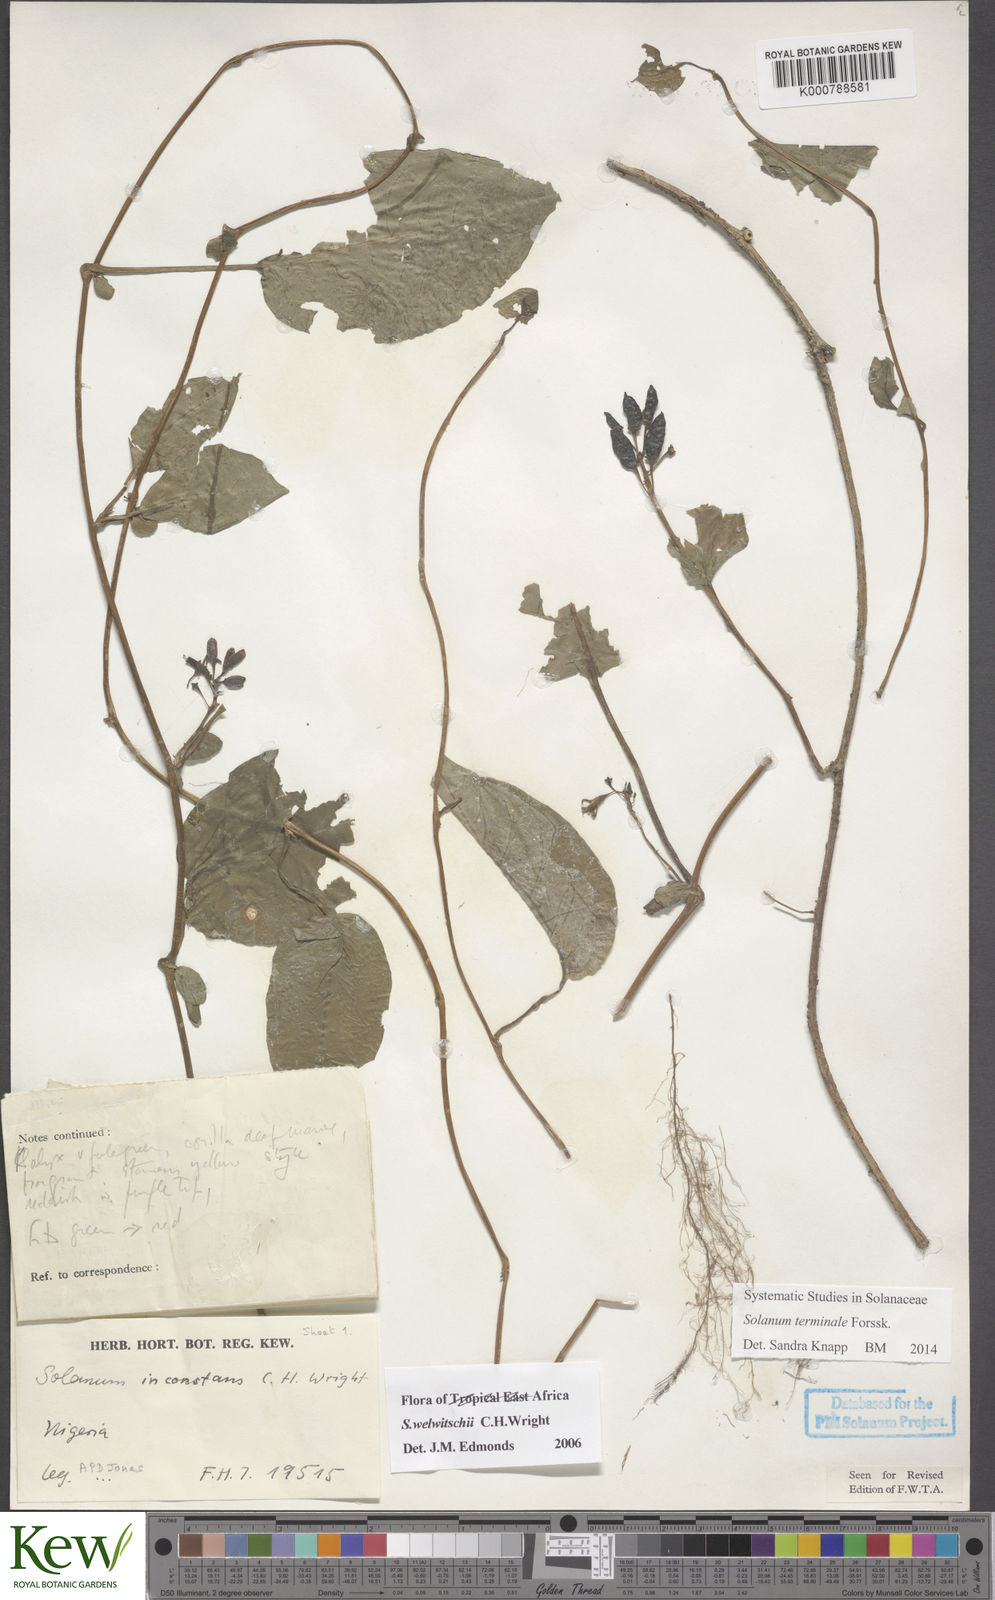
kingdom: Plantae
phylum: Tracheophyta
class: Magnoliopsida
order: Solanales
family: Solanaceae
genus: Solanum
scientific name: Solanum terminale
